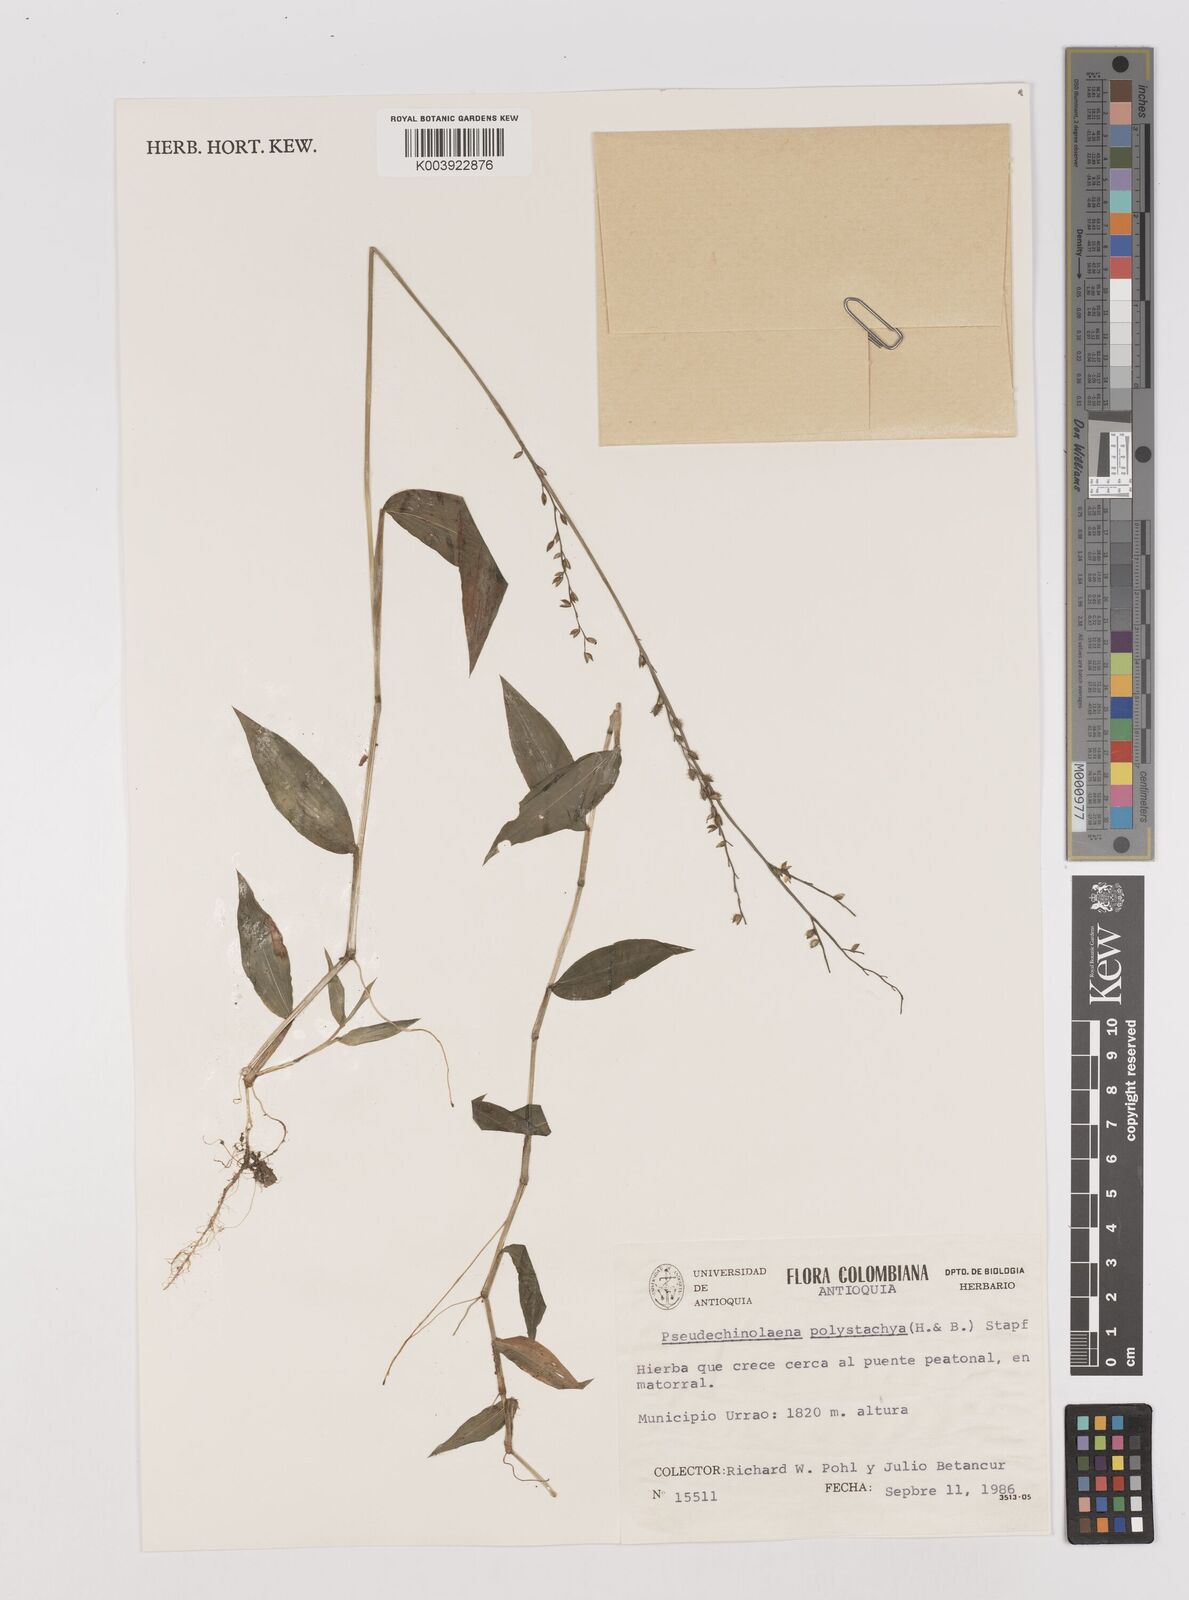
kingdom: Plantae
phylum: Tracheophyta
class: Liliopsida
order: Poales
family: Poaceae
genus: Pseudechinolaena
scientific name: Pseudechinolaena polystachya
